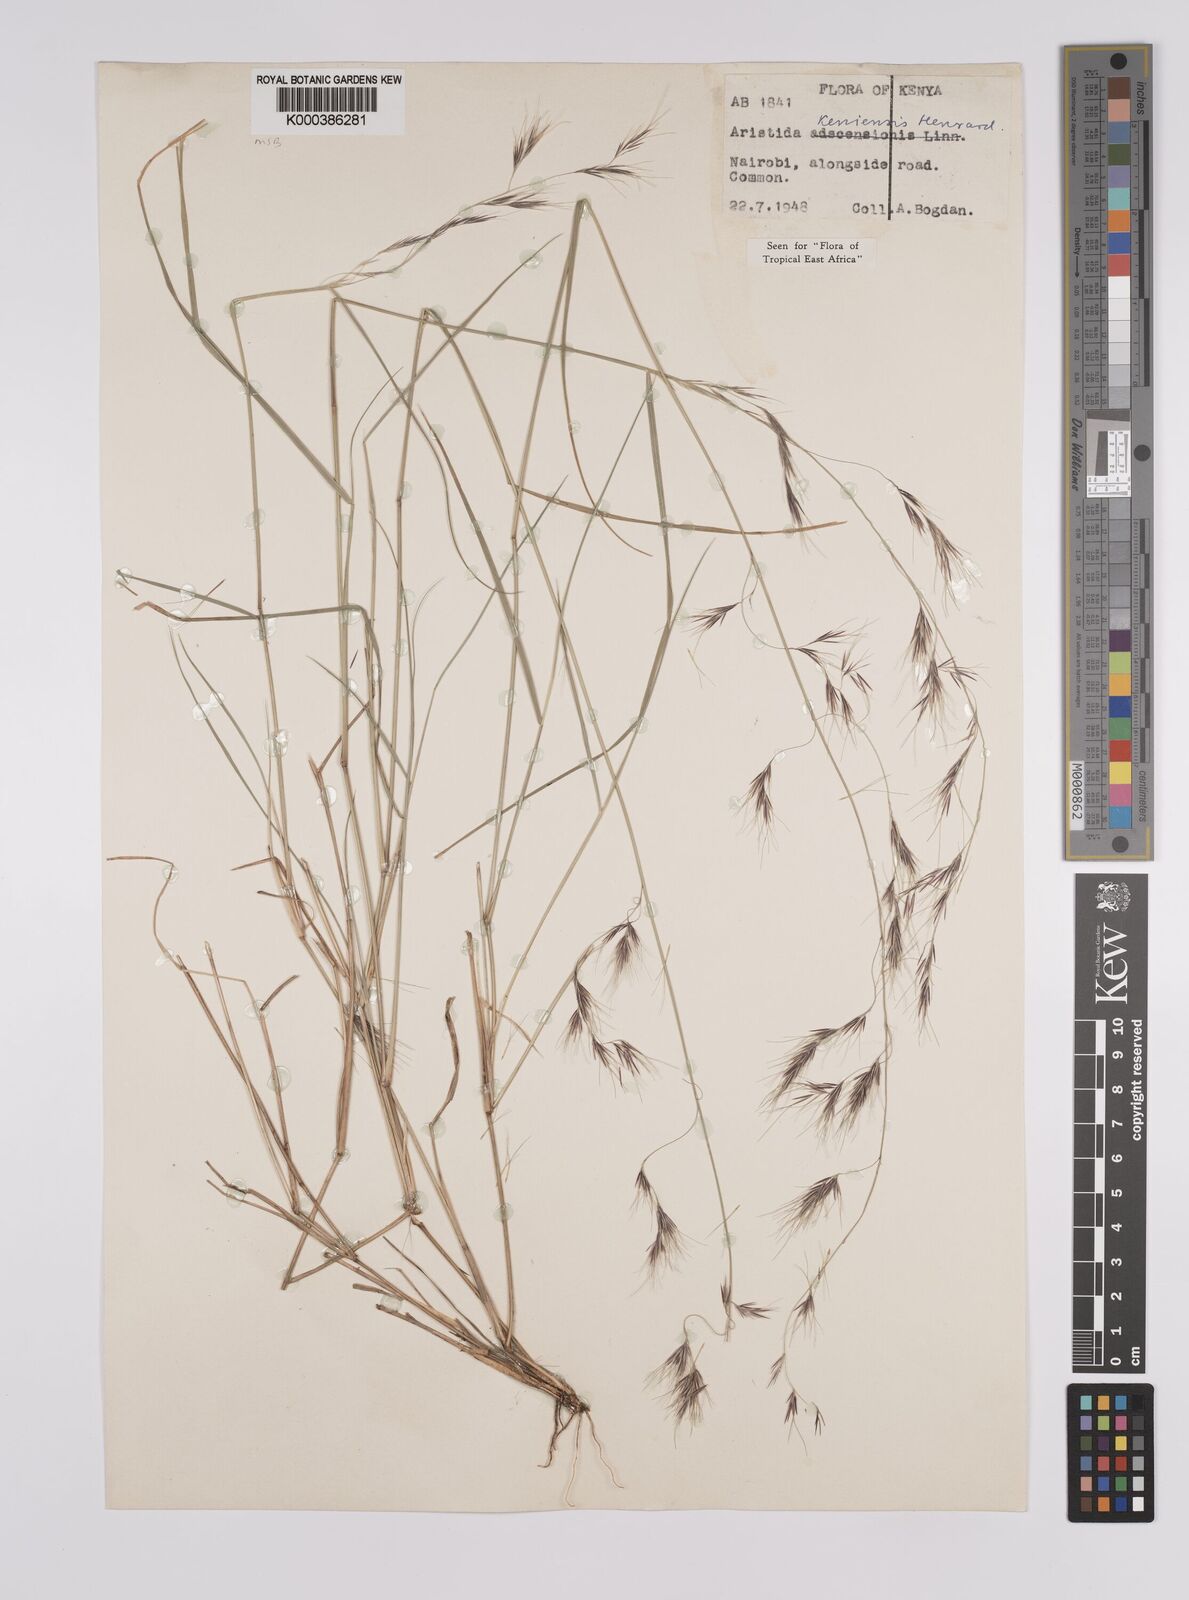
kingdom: Plantae
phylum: Tracheophyta
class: Liliopsida
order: Poales
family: Poaceae
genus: Aristida
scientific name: Aristida kenyensis
